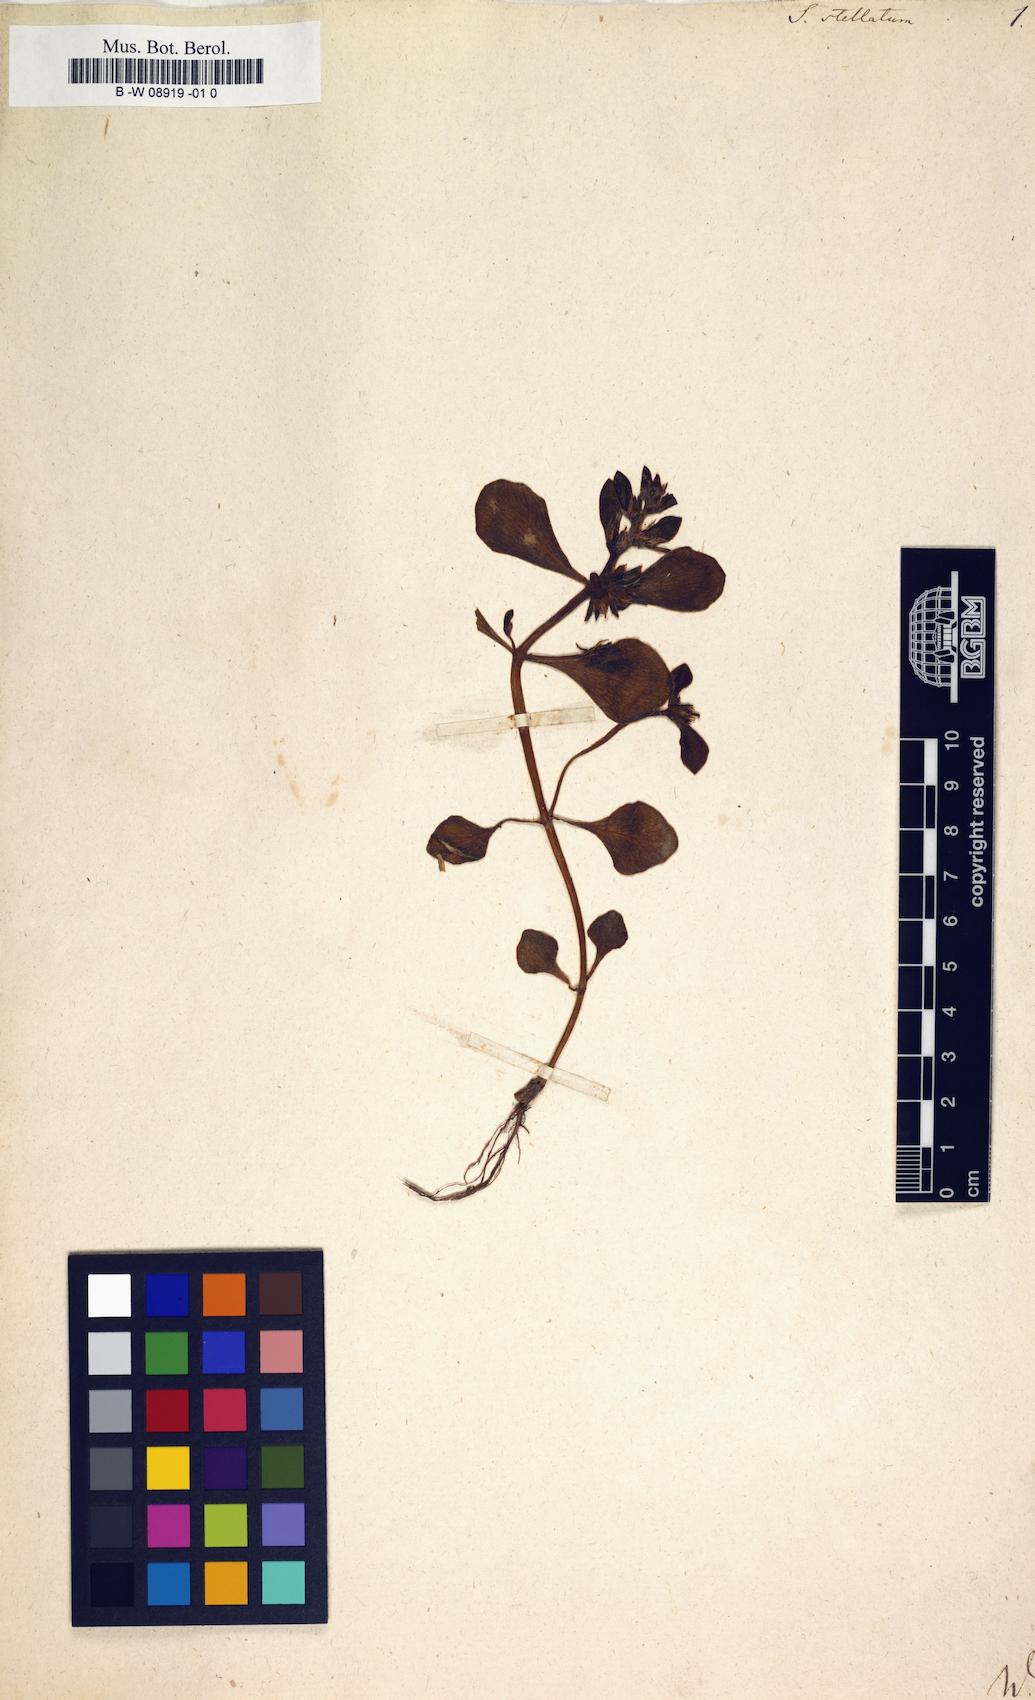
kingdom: Plantae
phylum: Tracheophyta
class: Magnoliopsida
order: Saxifragales
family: Crassulaceae
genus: Sedum
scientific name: Sedum stellatum
